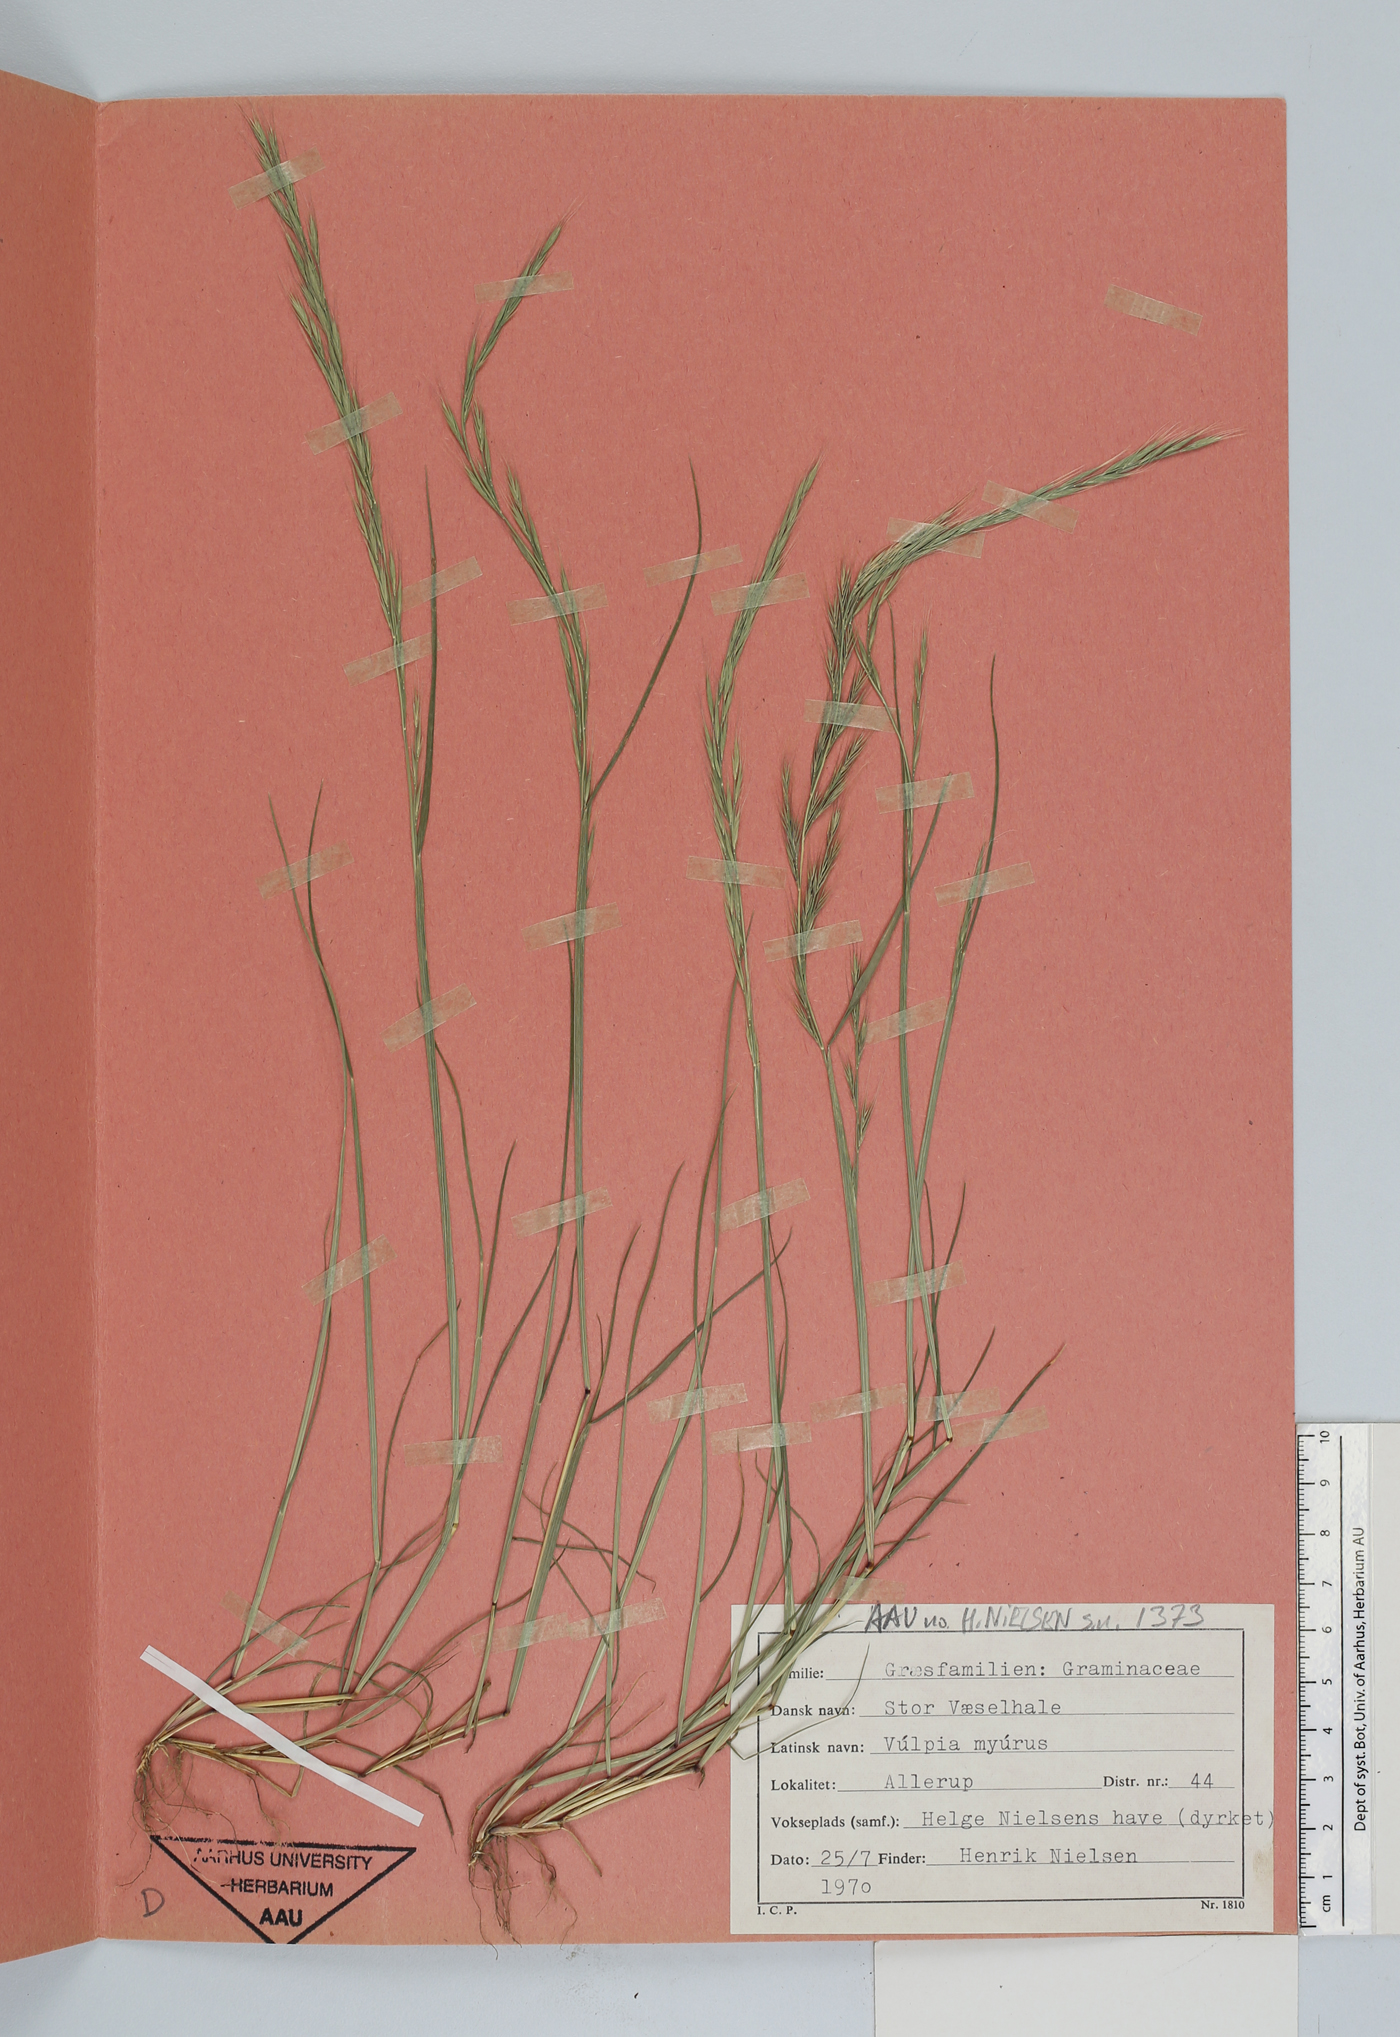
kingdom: Plantae
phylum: Tracheophyta
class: Liliopsida
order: Poales
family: Poaceae
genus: Festuca
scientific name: Festuca myuros
